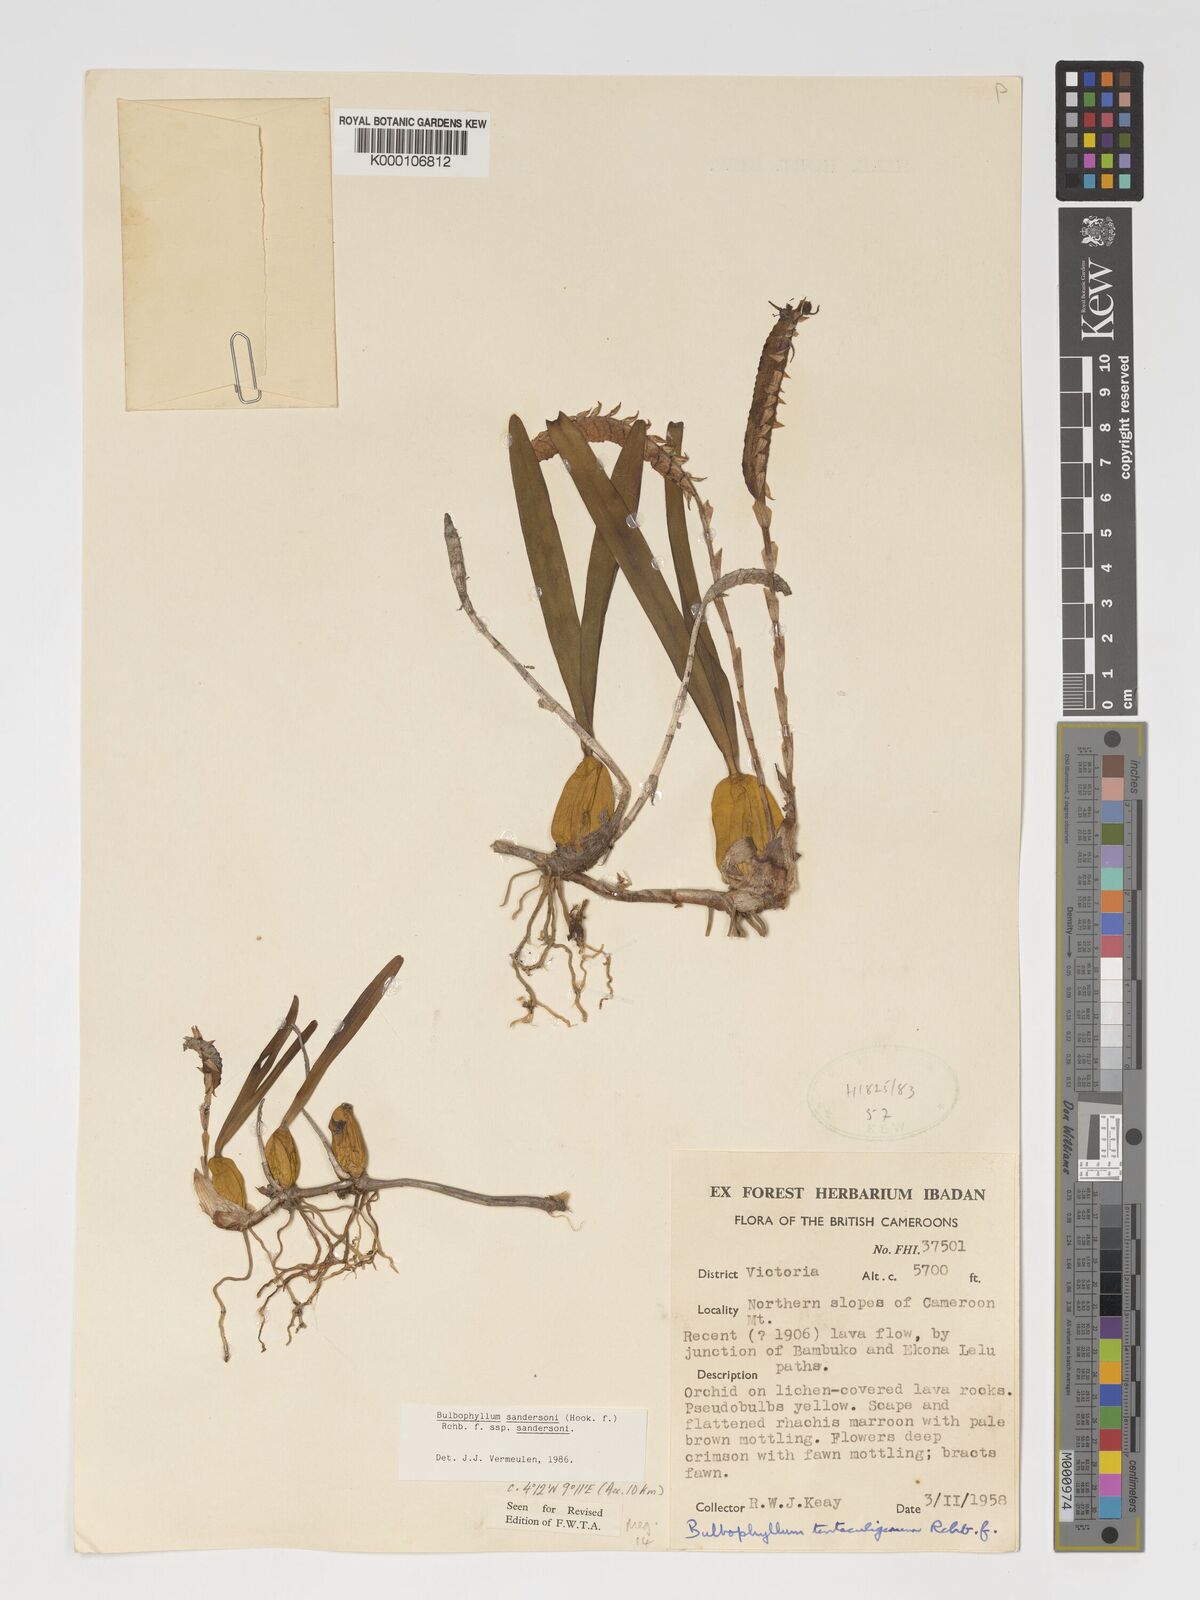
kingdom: Plantae
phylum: Tracheophyta
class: Liliopsida
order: Asparagales
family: Orchidaceae
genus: Bulbophyllum
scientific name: Bulbophyllum sandersonii
